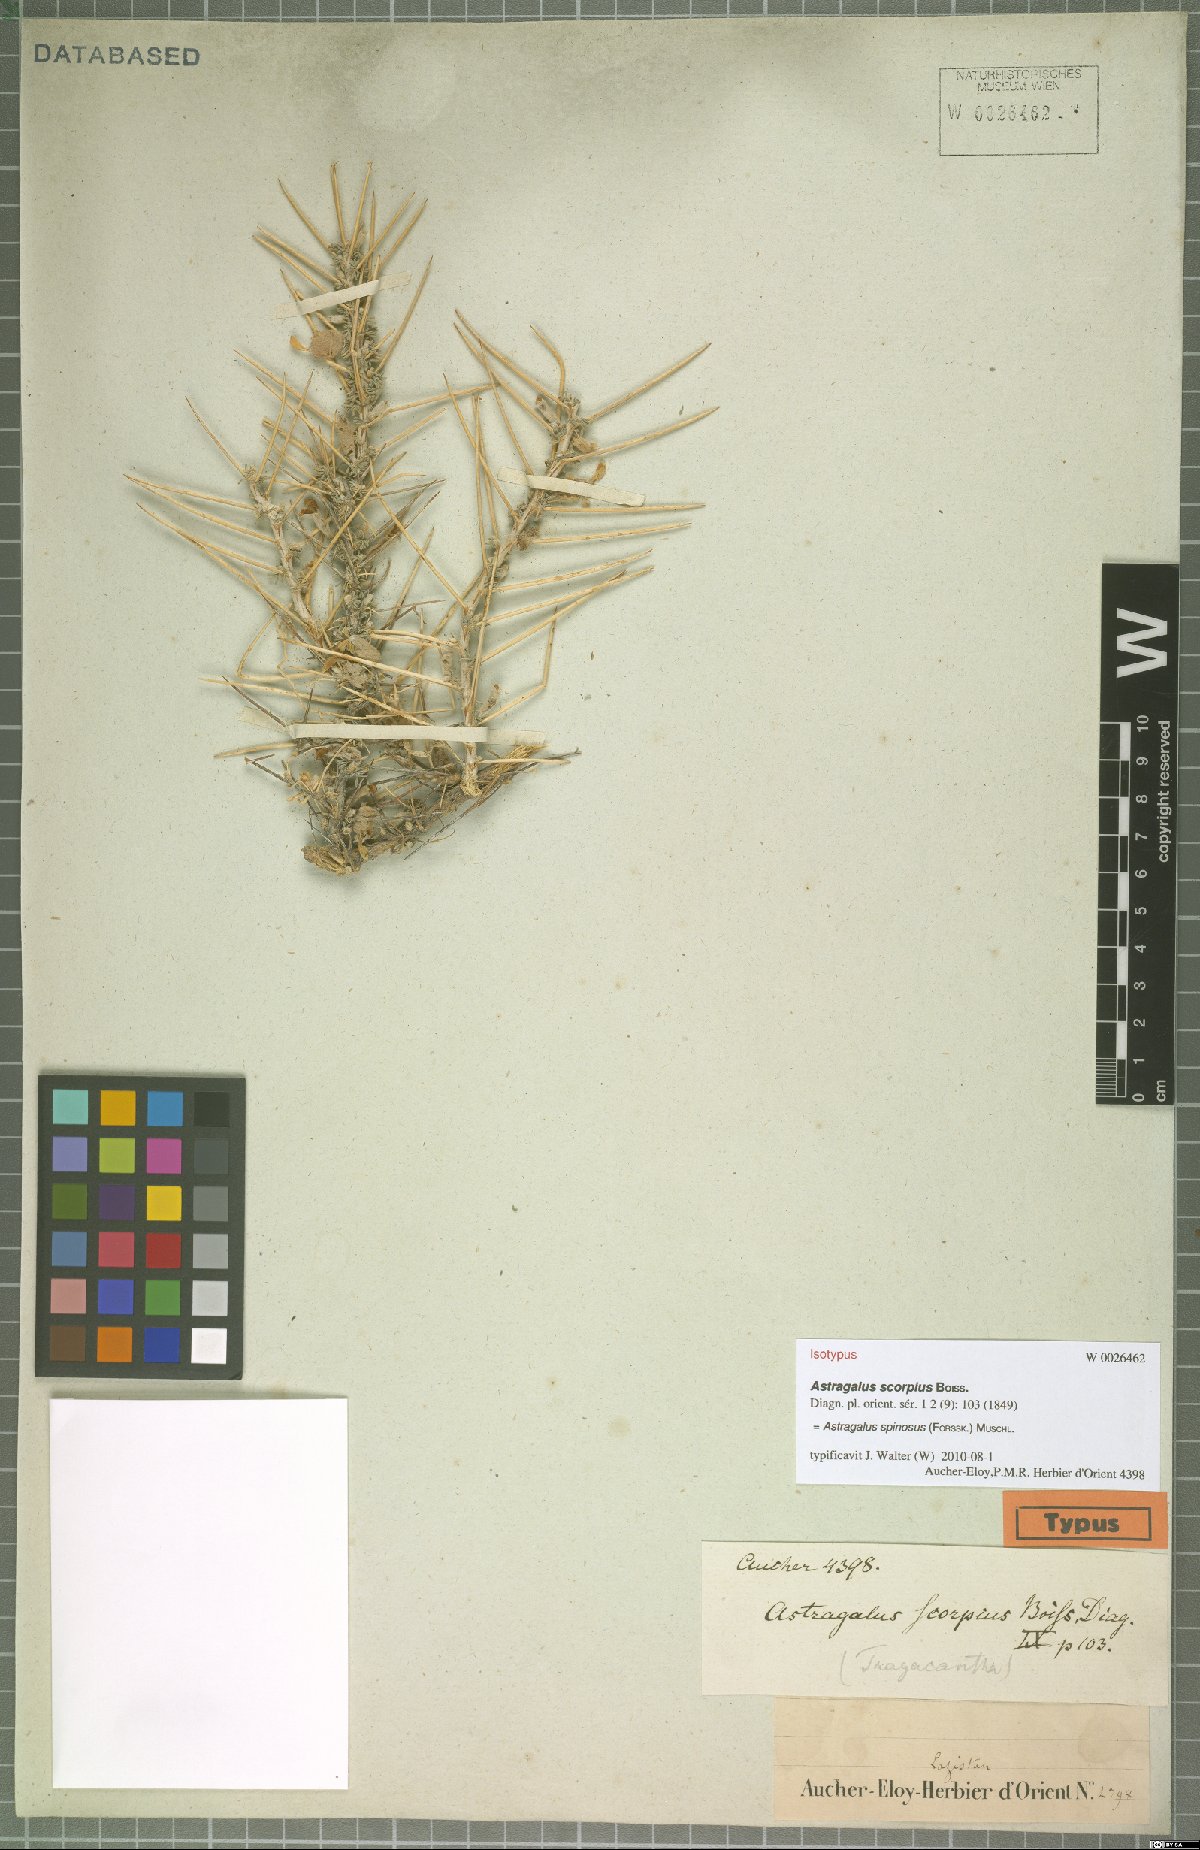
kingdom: Plantae
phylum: Tracheophyta
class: Magnoliopsida
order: Fabales
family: Fabaceae
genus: Astragalus
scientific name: Astragalus spinosus
